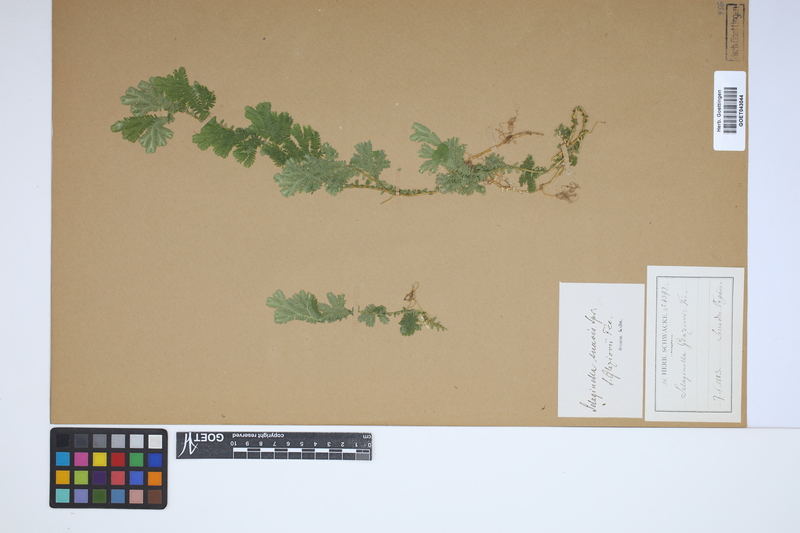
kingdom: Plantae
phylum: Tracheophyta
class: Lycopodiopsida
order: Selaginellales
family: Selaginellaceae
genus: Selaginella
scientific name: Selaginella suavis
